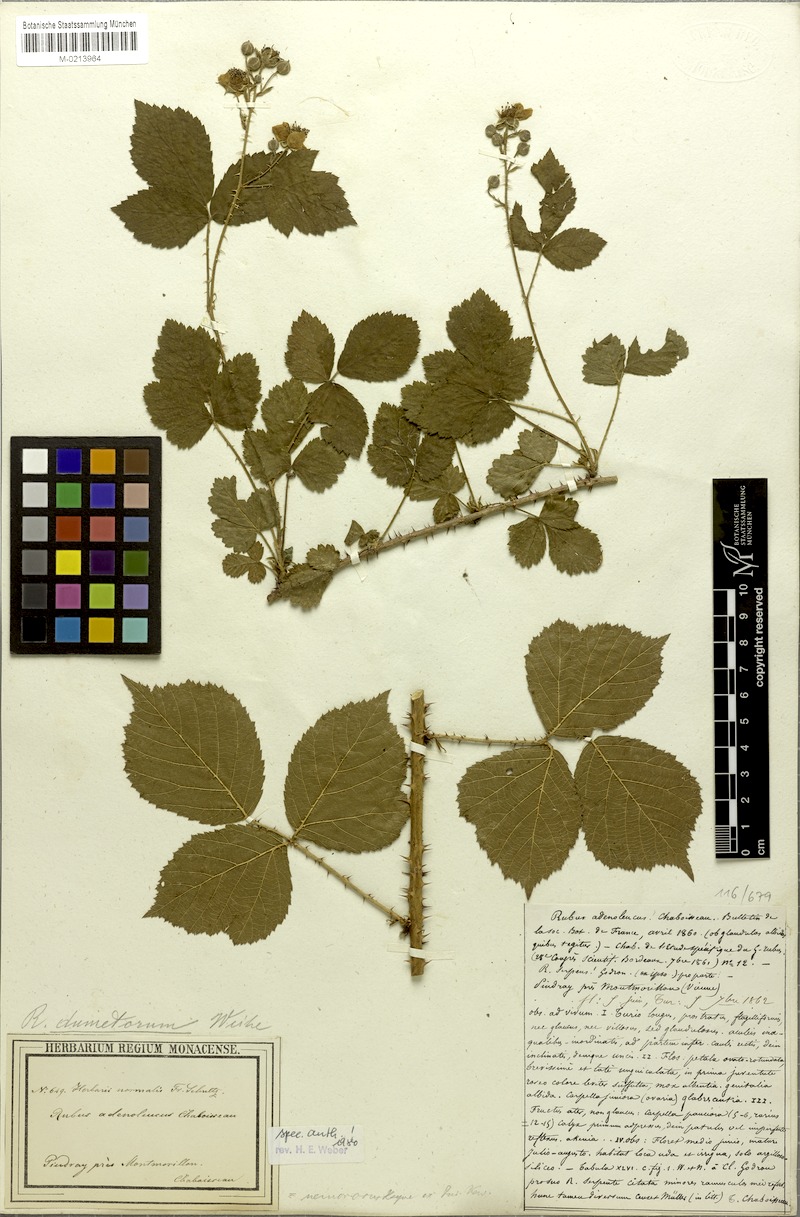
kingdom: Plantae
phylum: Tracheophyta
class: Magnoliopsida
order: Rosales
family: Rosaceae
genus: Rubus
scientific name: Rubus adenoleucus
